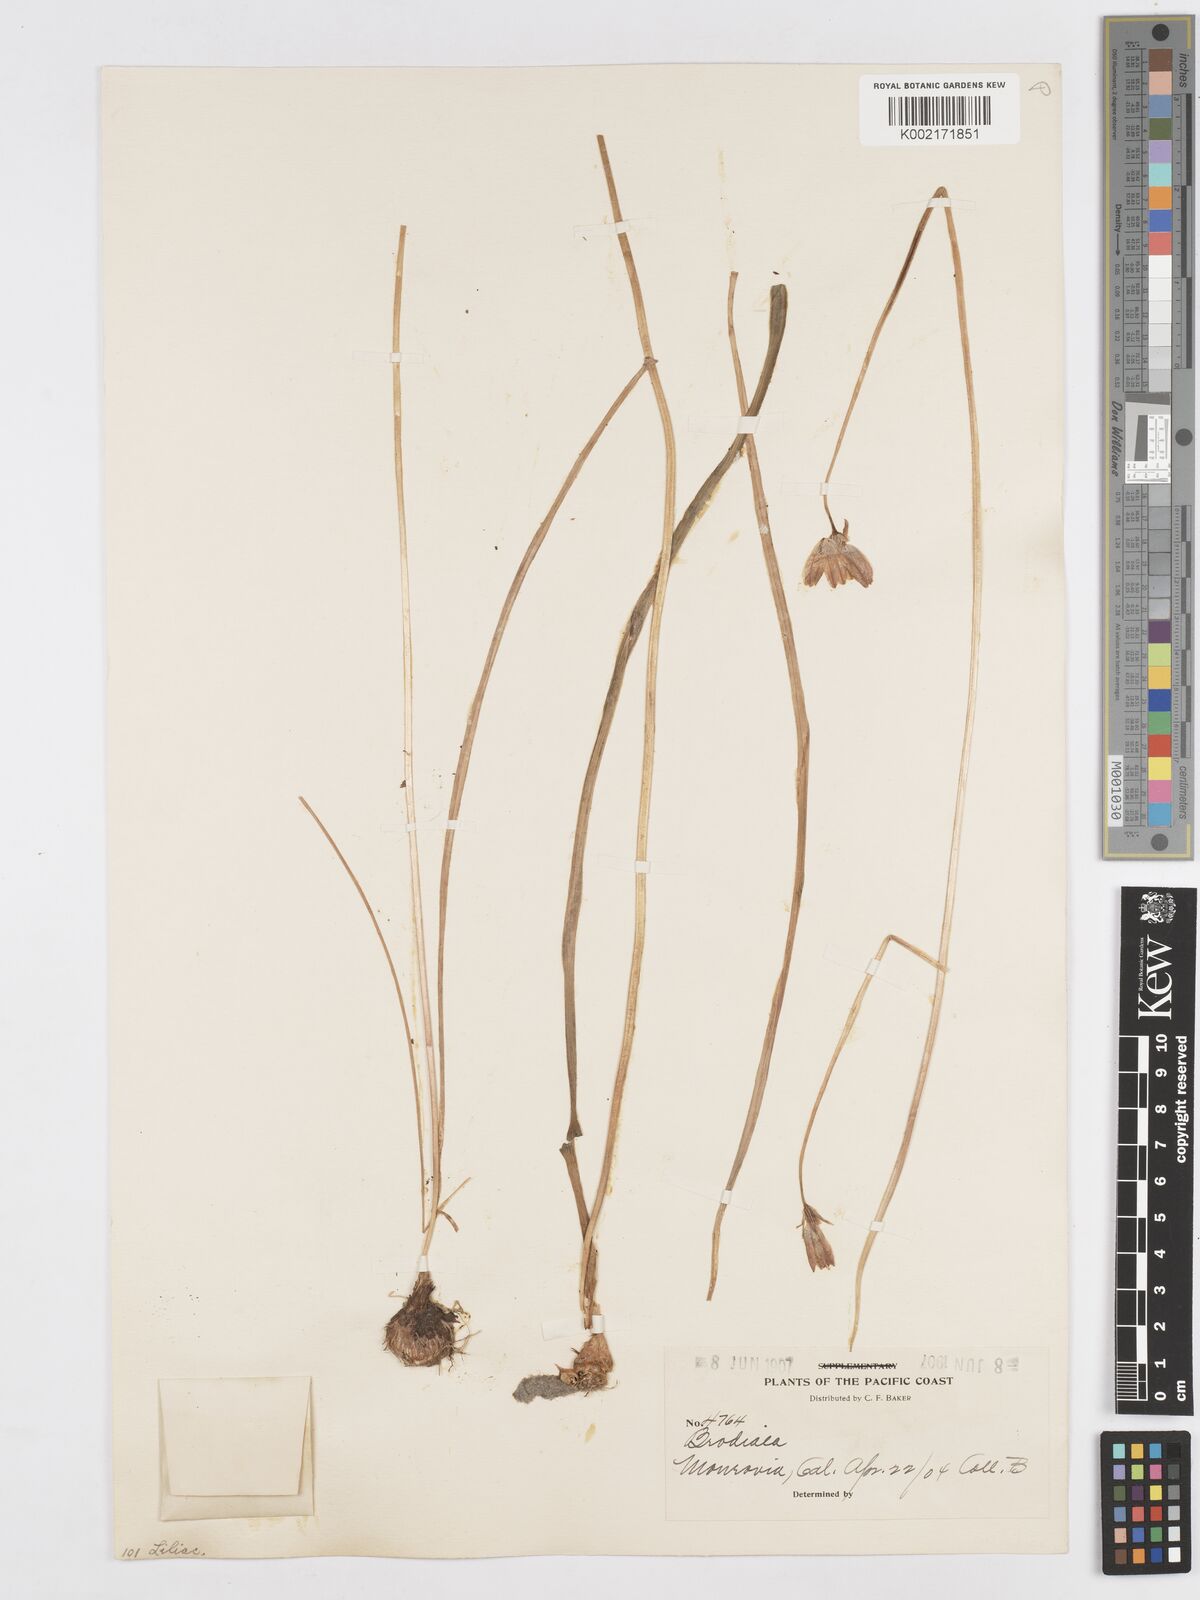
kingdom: Plantae
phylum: Tracheophyta
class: Liliopsida
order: Asparagales
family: Asparagaceae
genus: Dichelostemma
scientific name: Dichelostemma congestum
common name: Fork-tooth ookow
